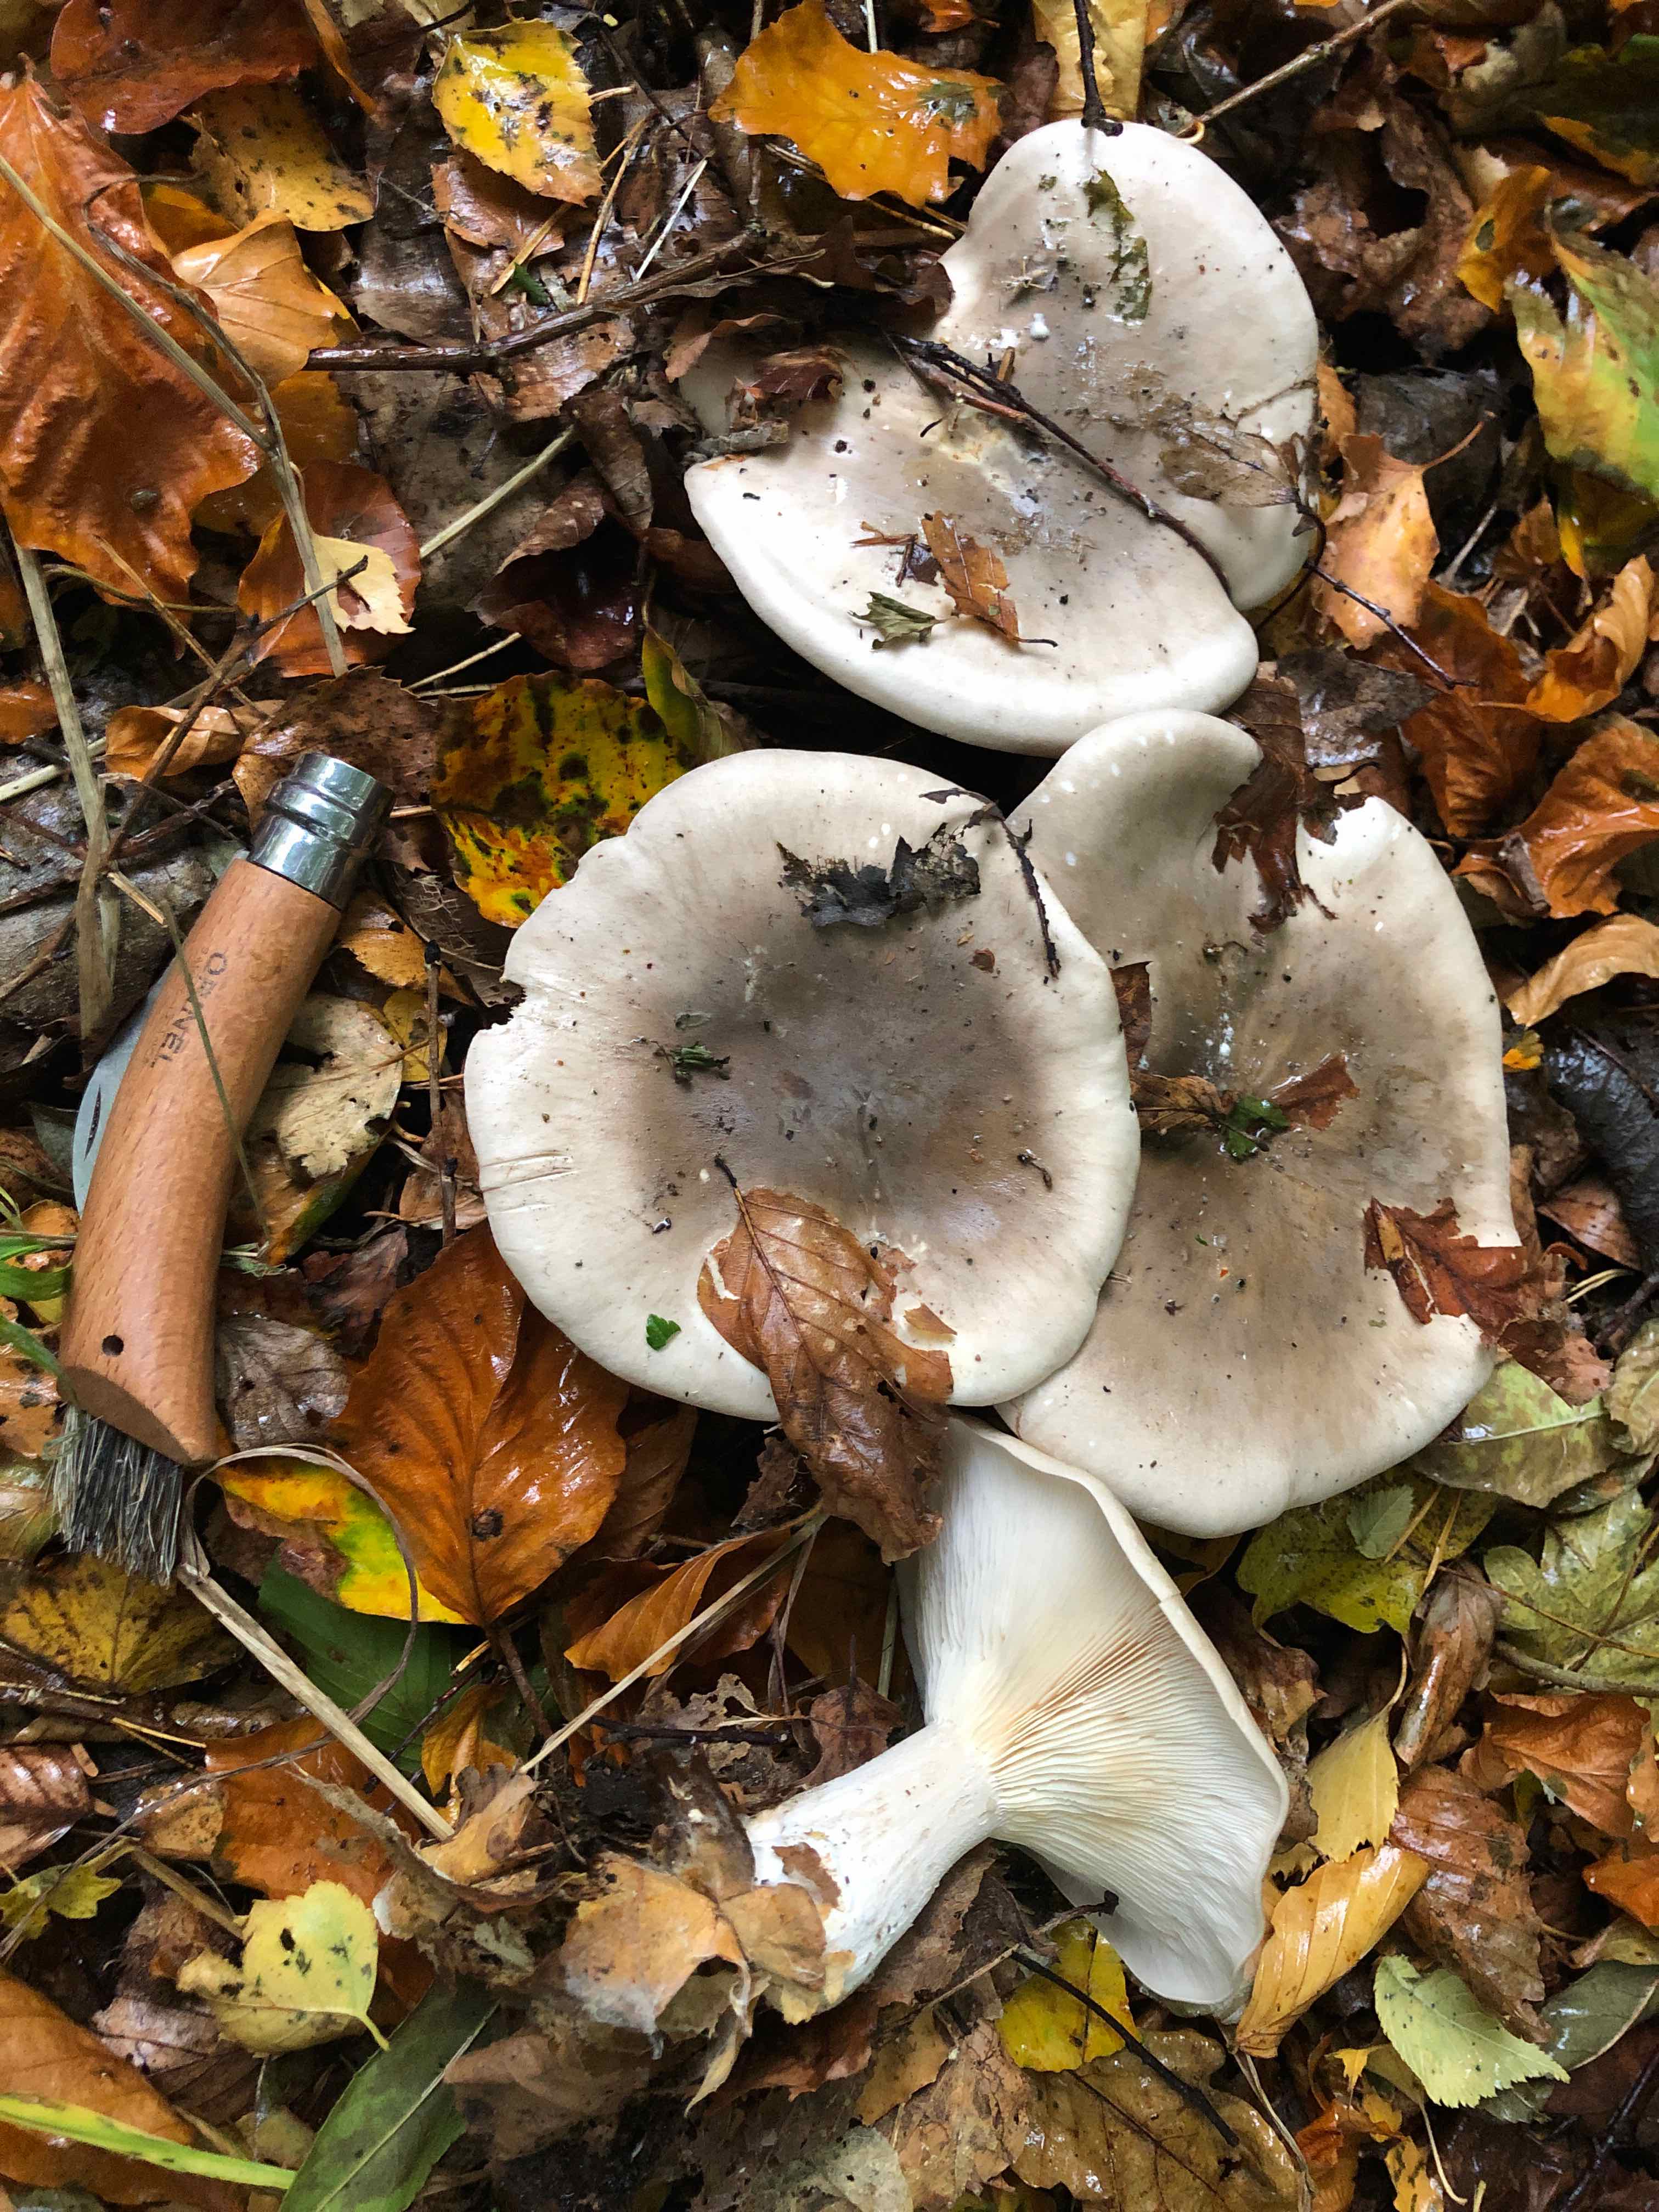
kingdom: Fungi
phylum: Basidiomycota
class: Agaricomycetes
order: Agaricales
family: Tricholomataceae
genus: Clitocybe
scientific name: Clitocybe nebularis
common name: tåge-tragthat
